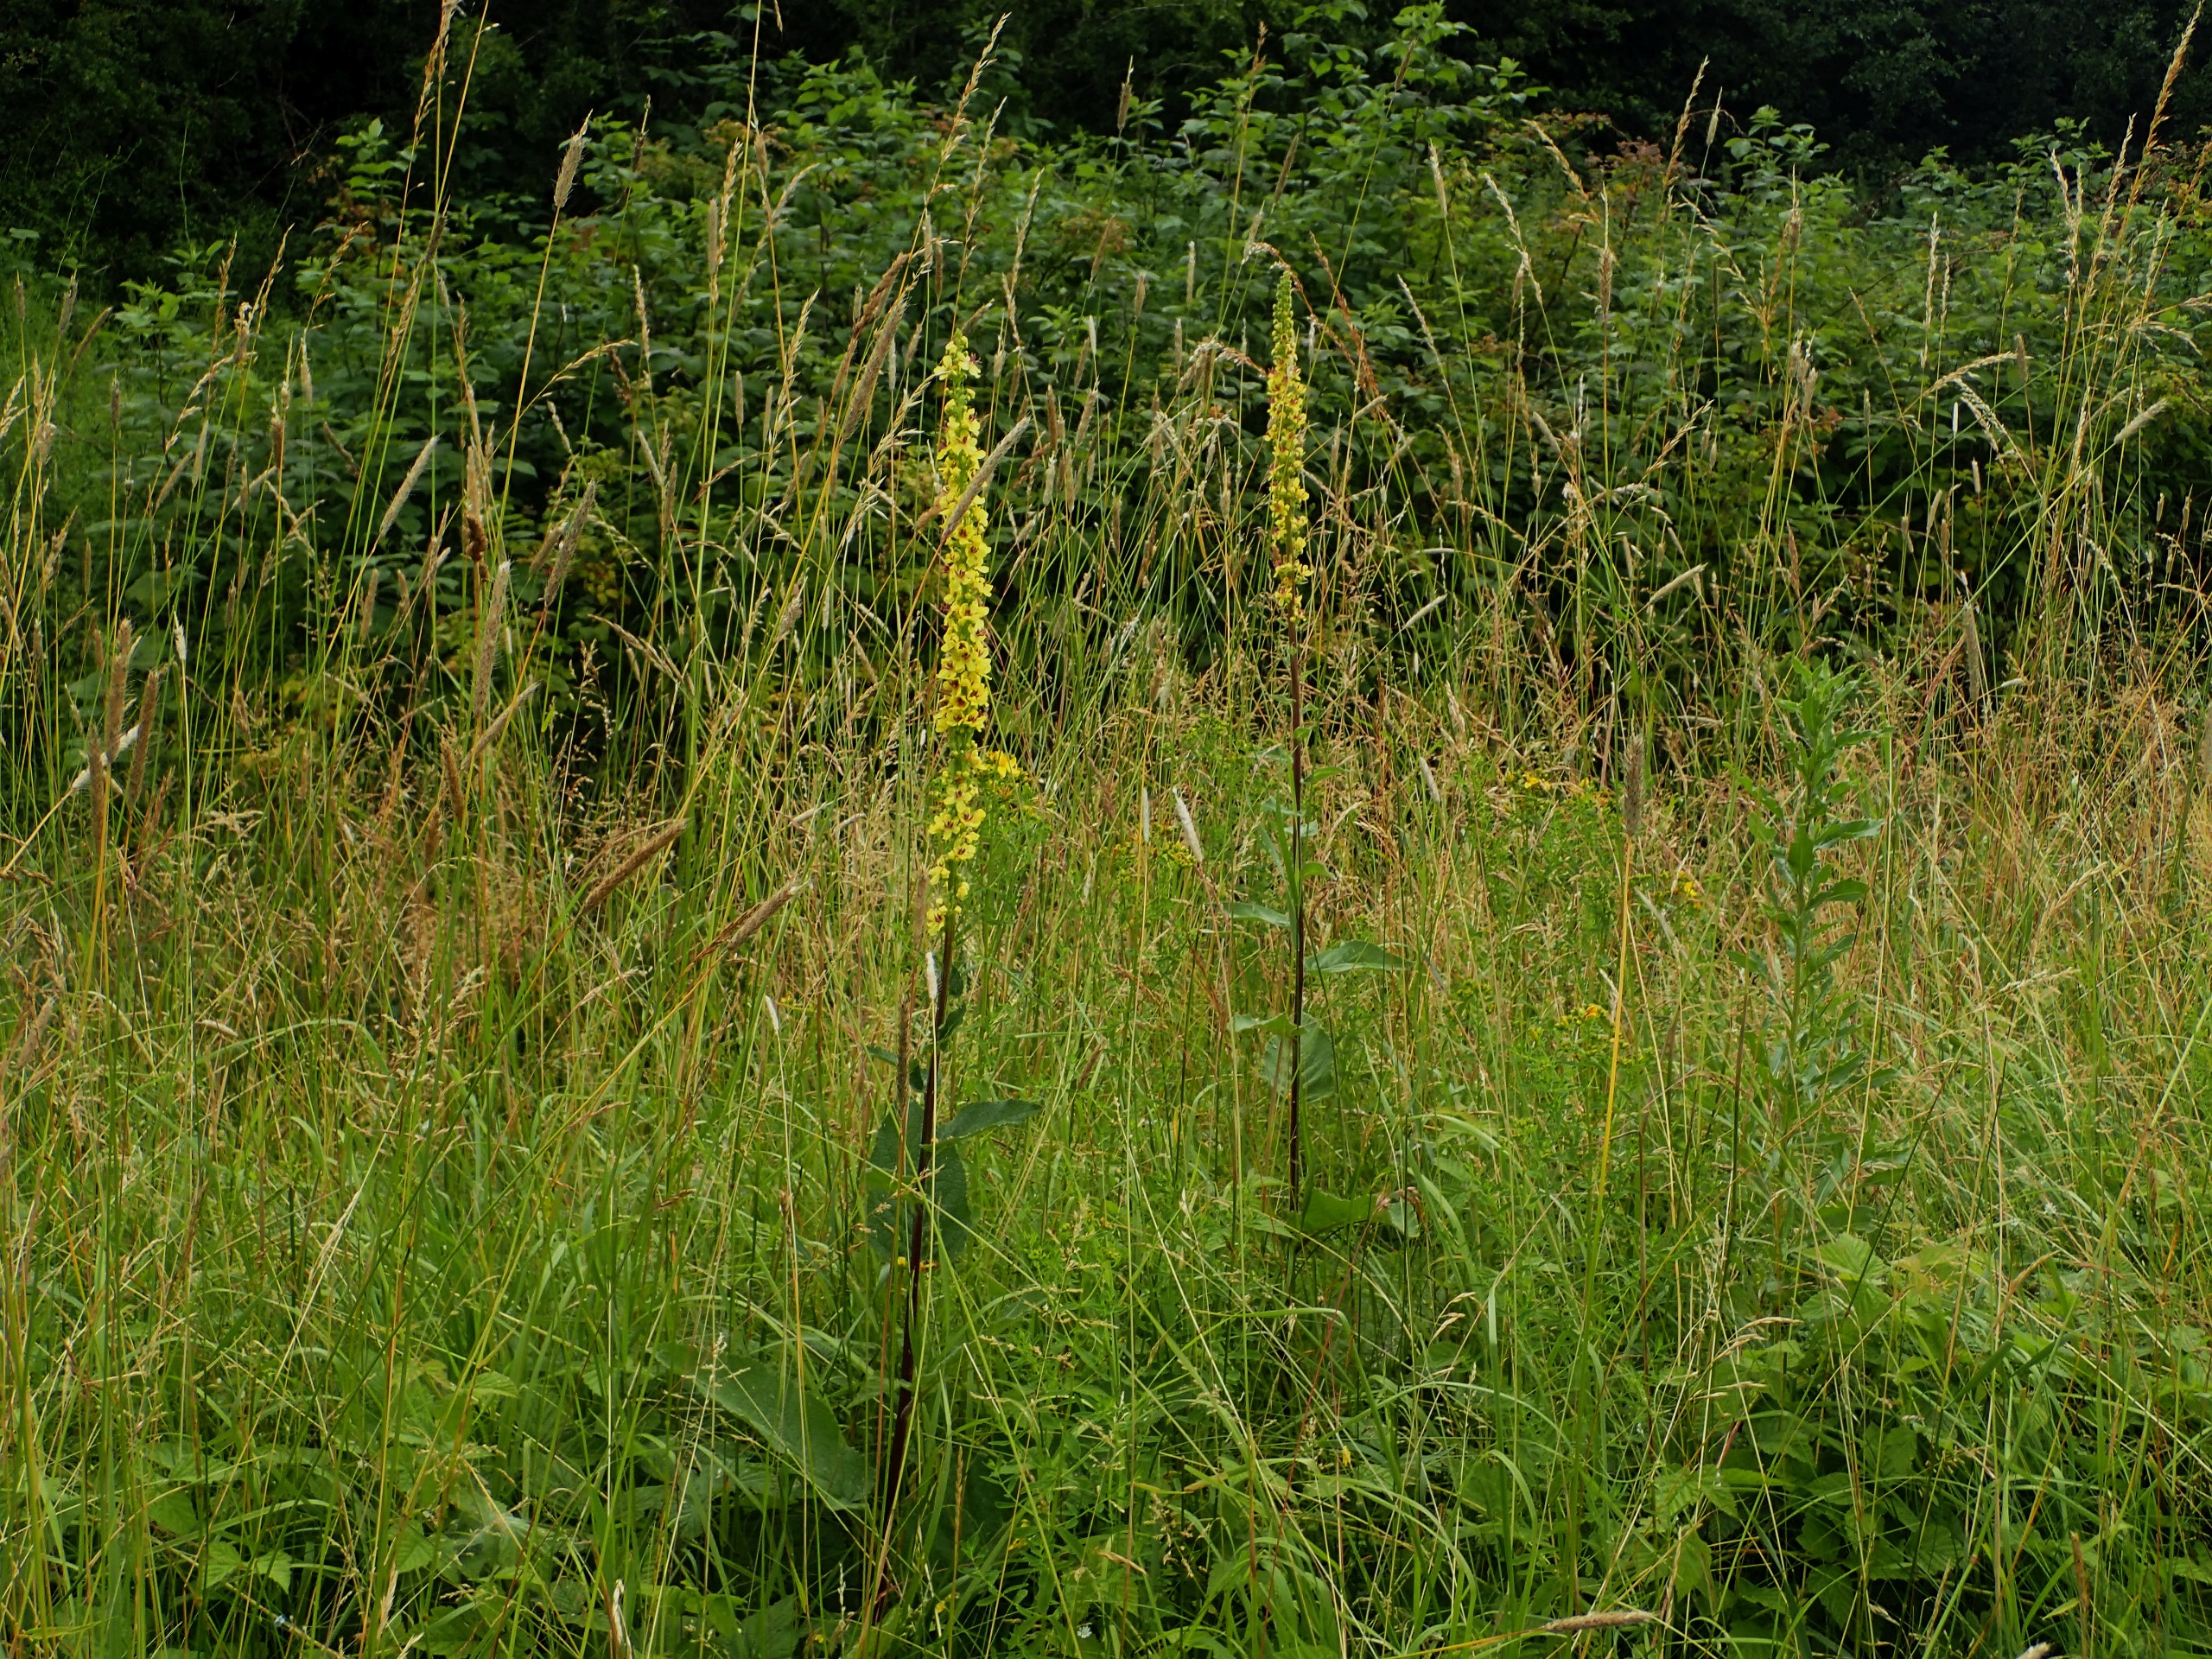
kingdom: Plantae
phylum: Tracheophyta
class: Magnoliopsida
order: Lamiales
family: Scrophulariaceae
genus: Verbascum
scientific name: Verbascum nigrum
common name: Mørk kongelys
